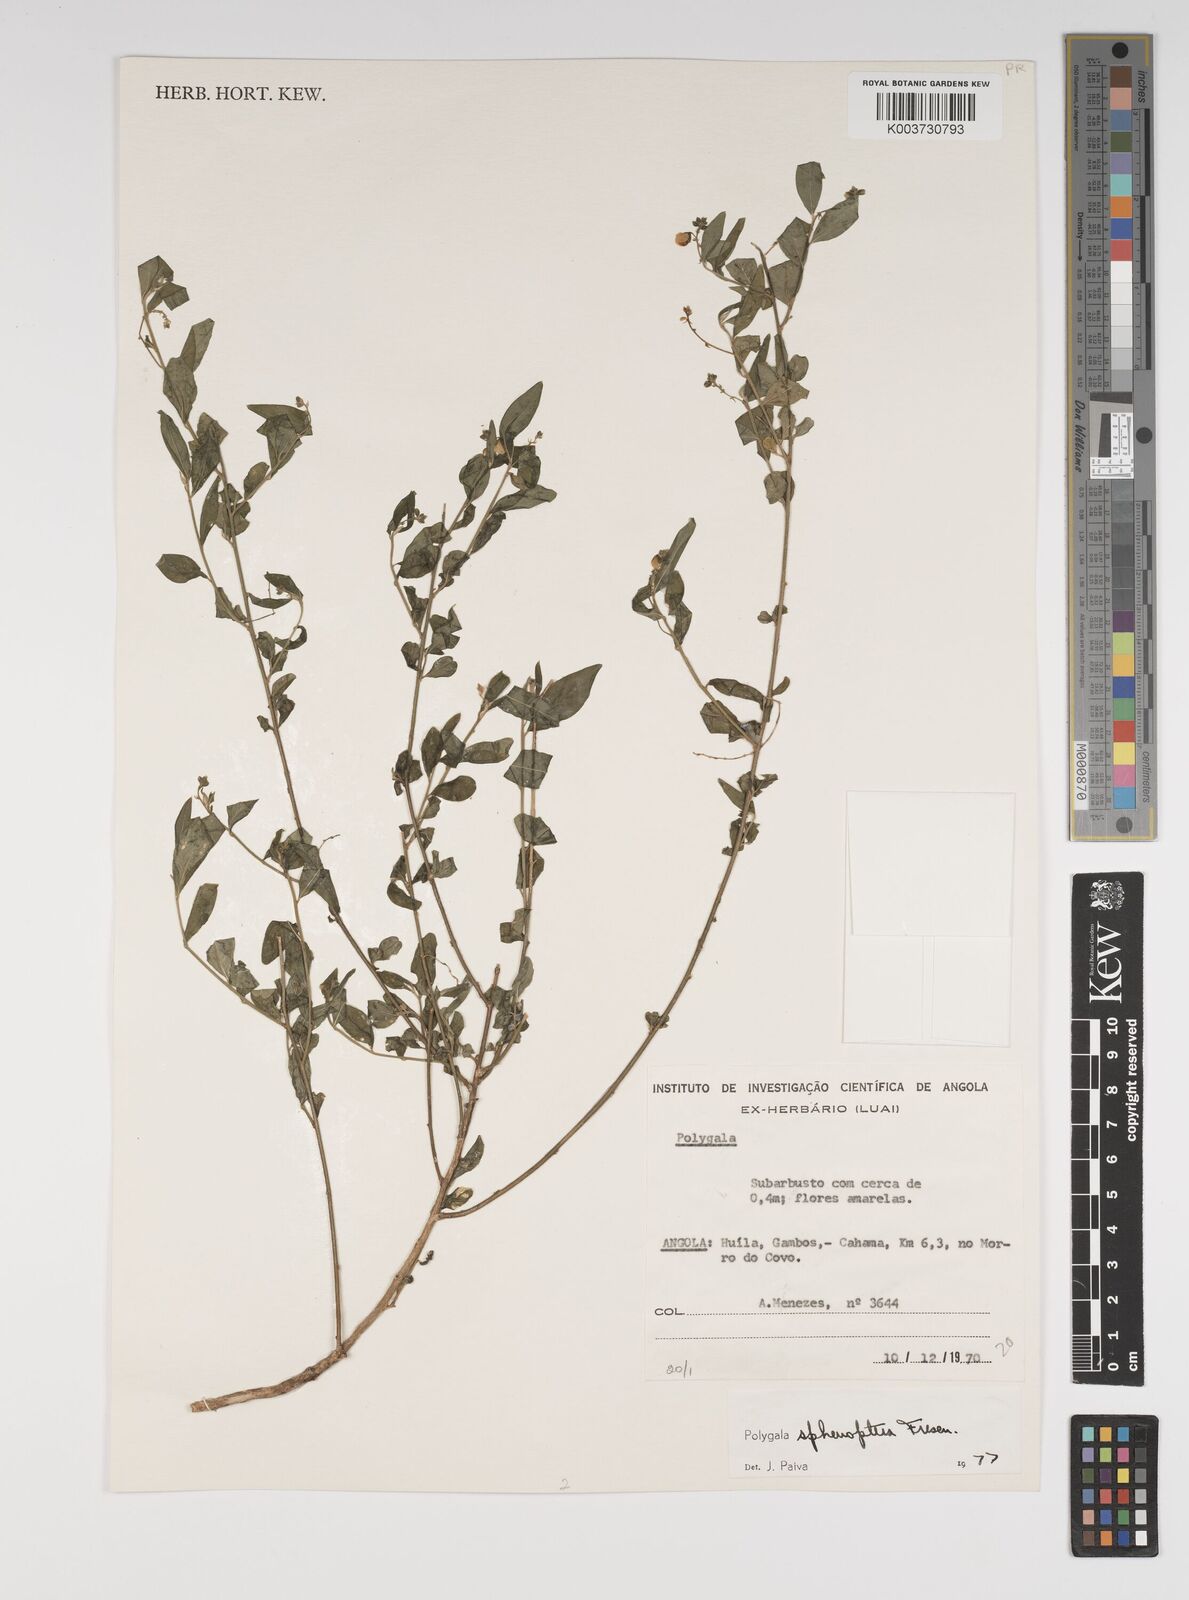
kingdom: Plantae
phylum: Tracheophyta
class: Magnoliopsida
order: Fabales
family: Polygalaceae
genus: Polygala
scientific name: Polygala sphenoptera
